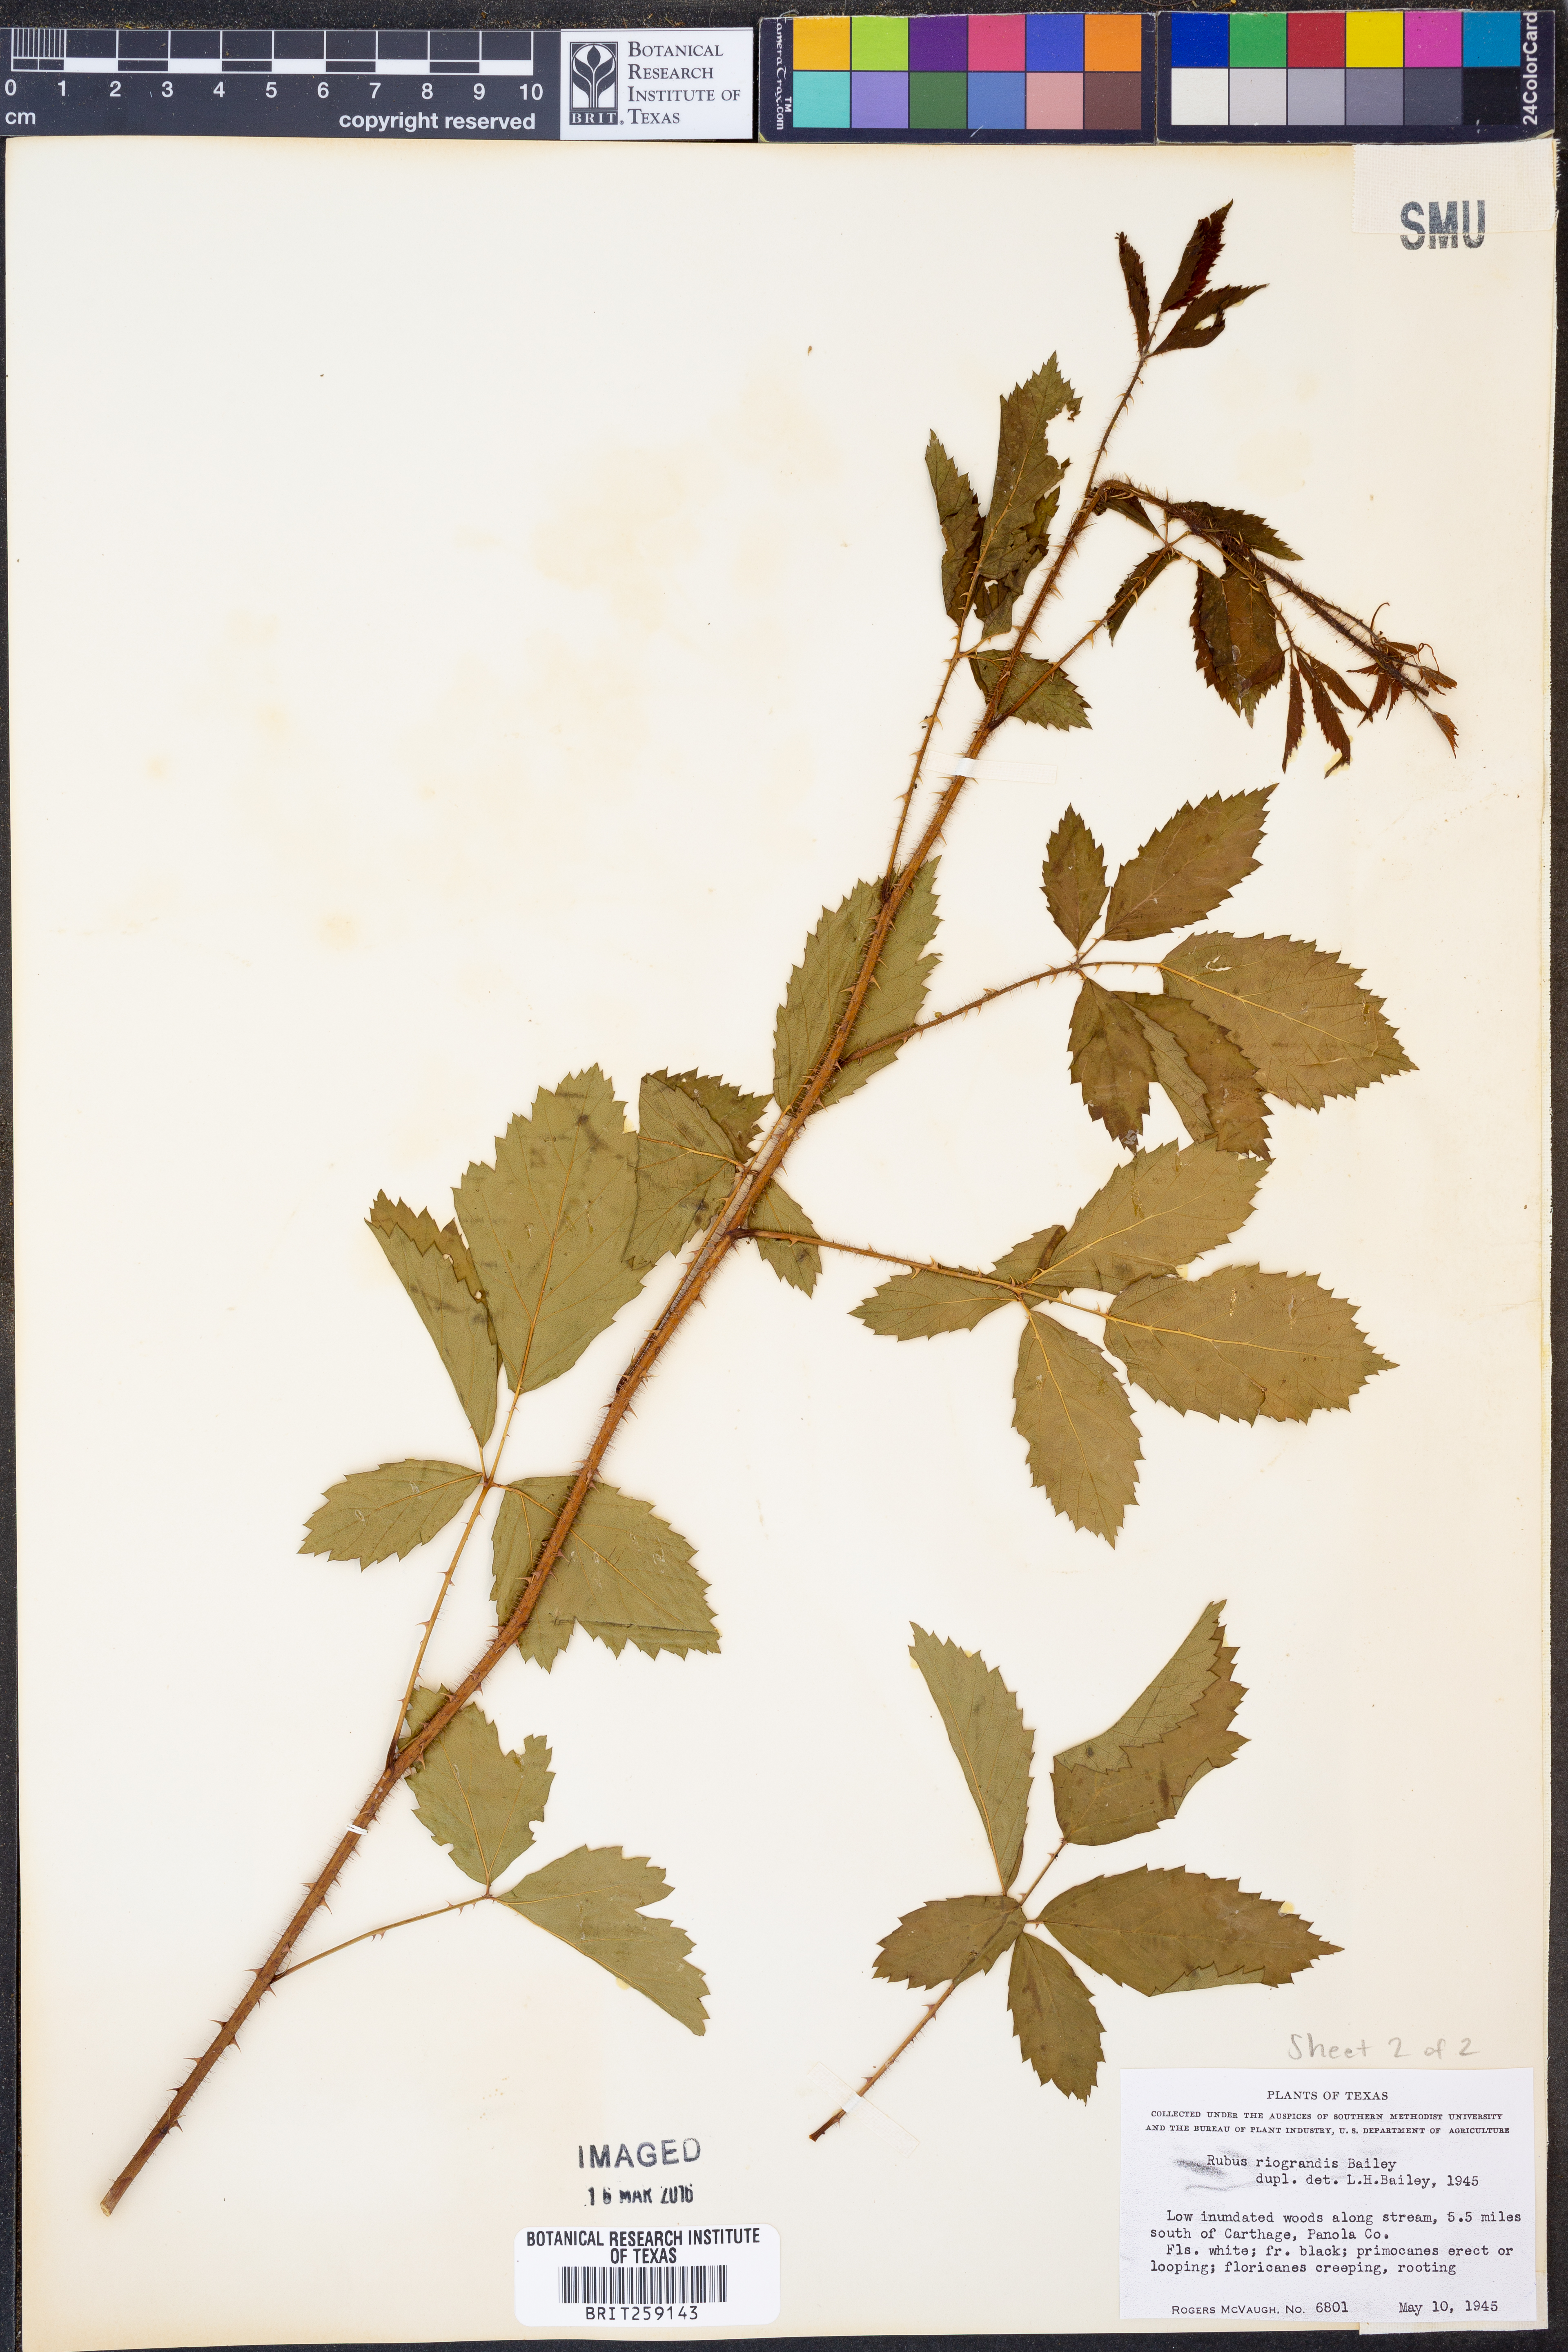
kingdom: Plantae
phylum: Tracheophyta
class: Magnoliopsida
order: Rosales
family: Rosaceae
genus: Rubus
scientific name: Rubus riograndis
